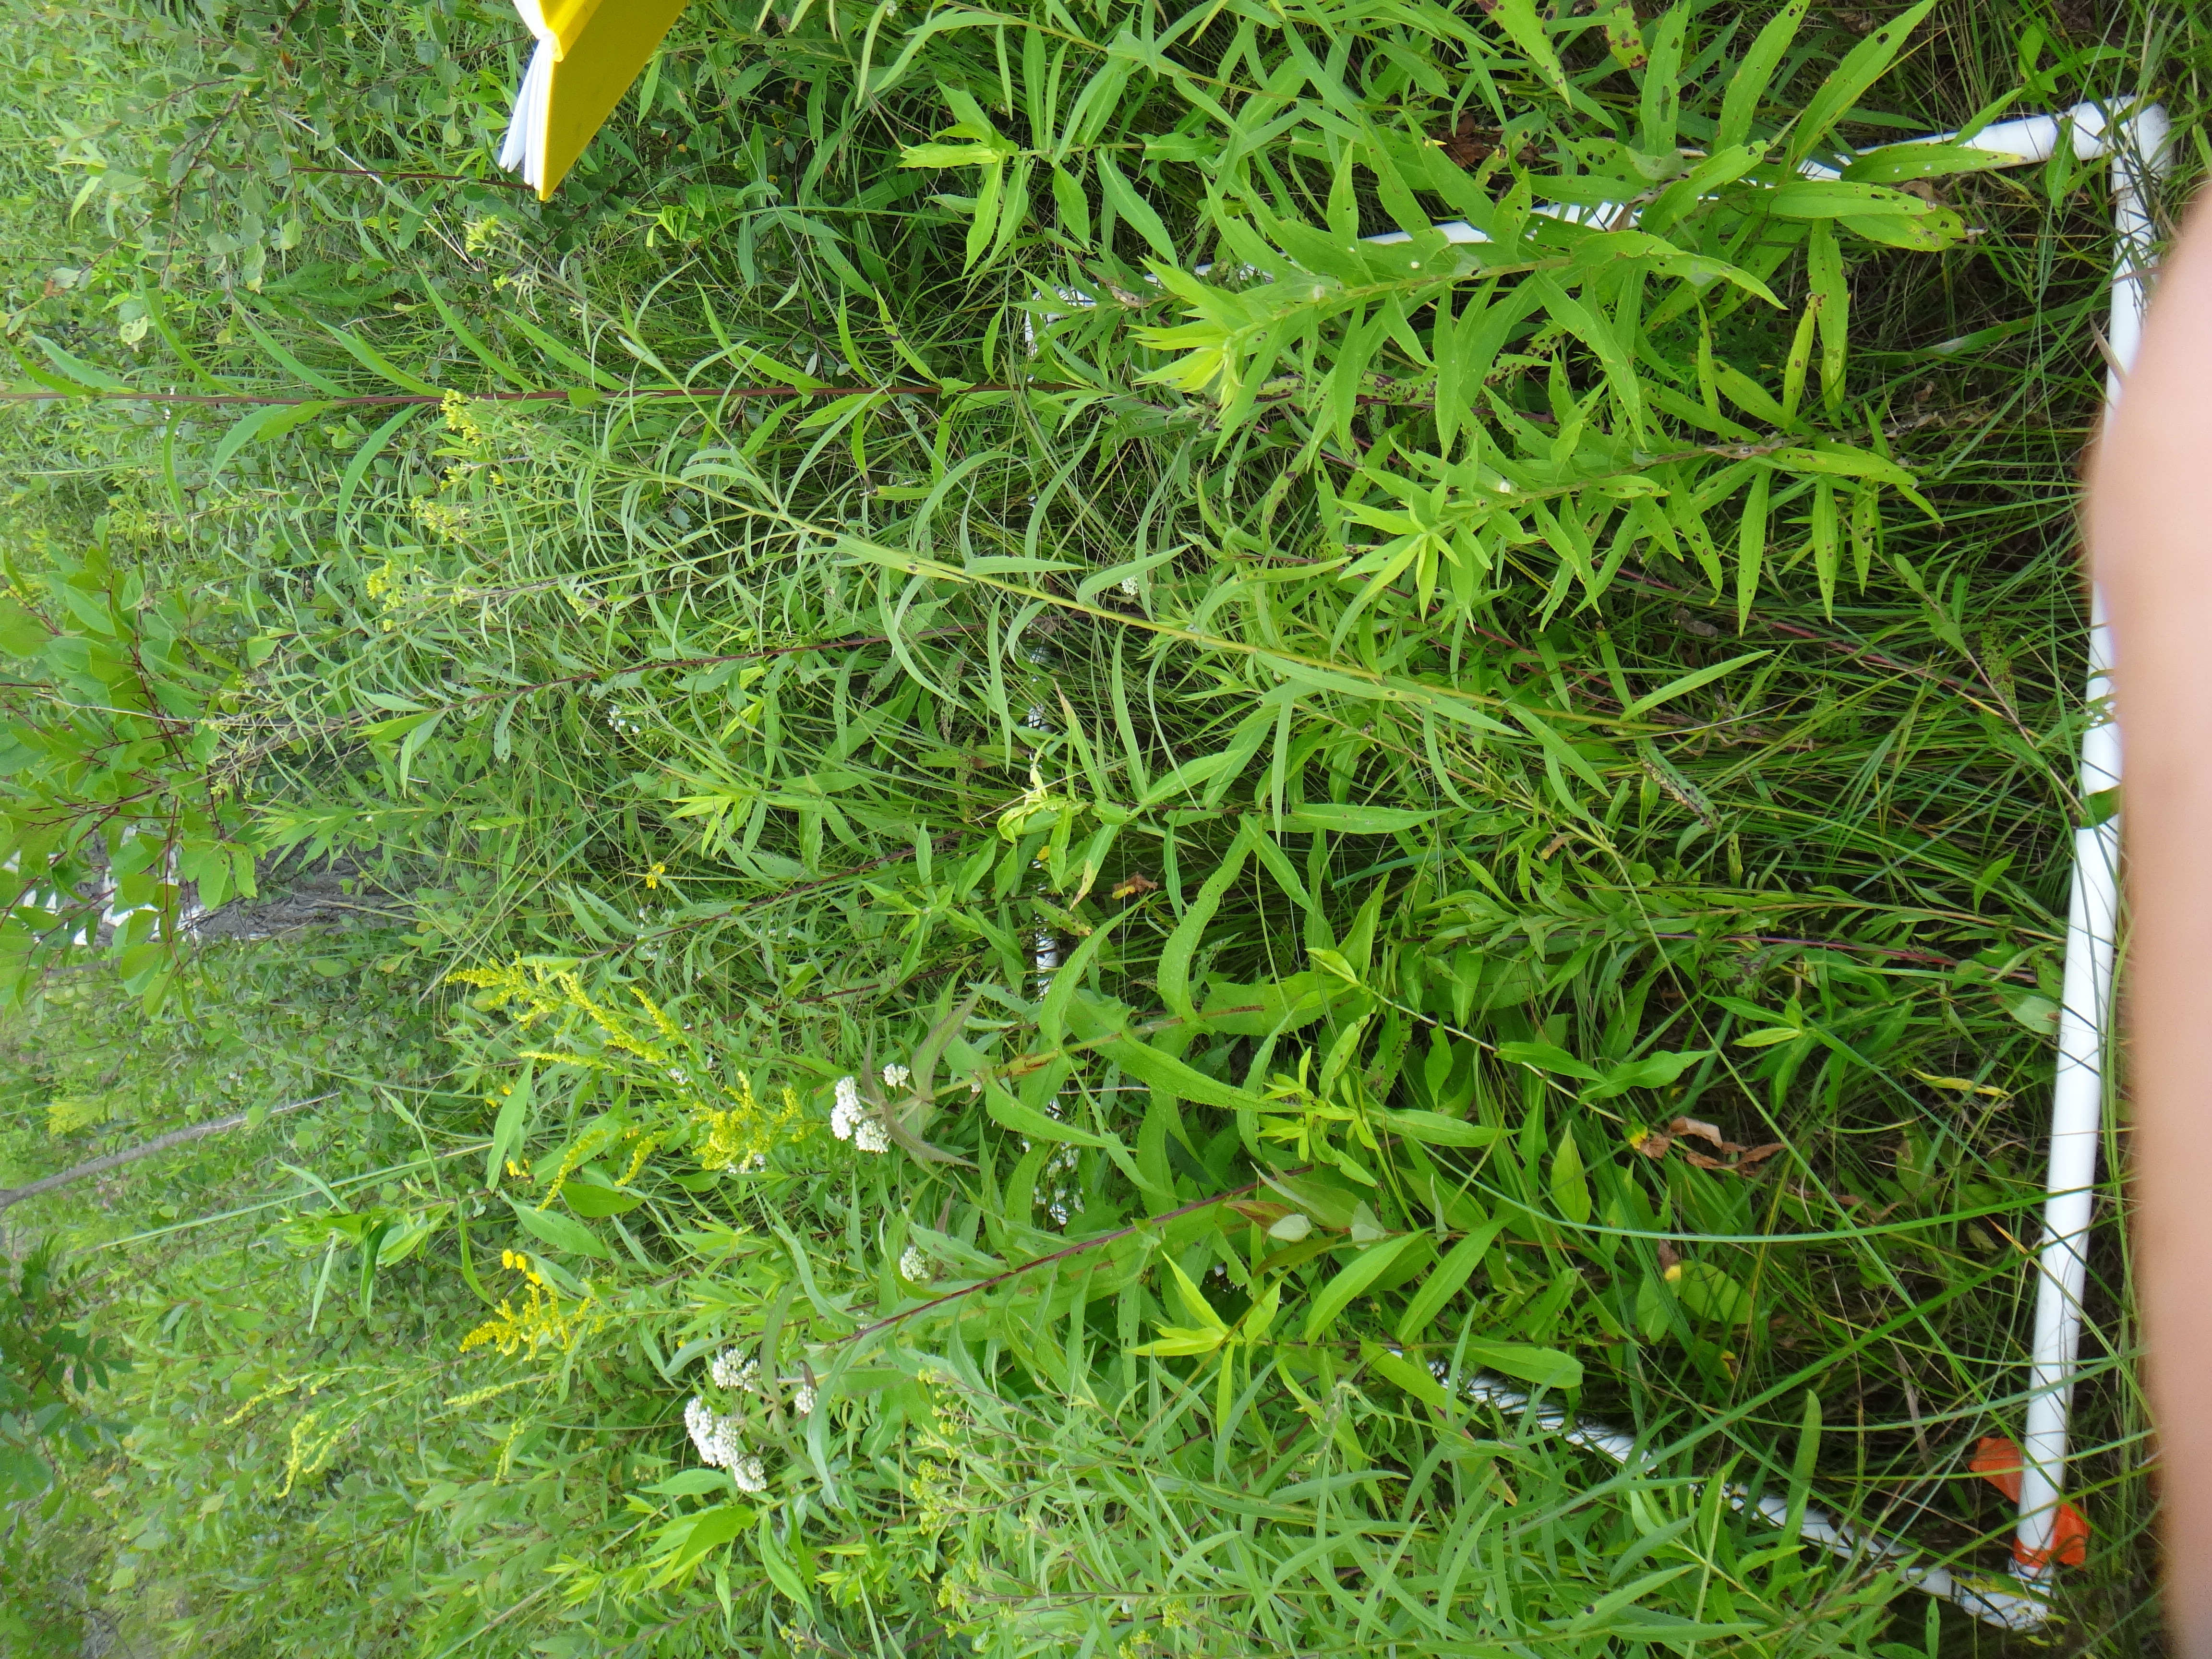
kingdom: Plantae
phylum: Tracheophyta
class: Magnoliopsida
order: Asterales
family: Asteraceae
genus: Solidago
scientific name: Solidago canadensis
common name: Canada goldenrod
